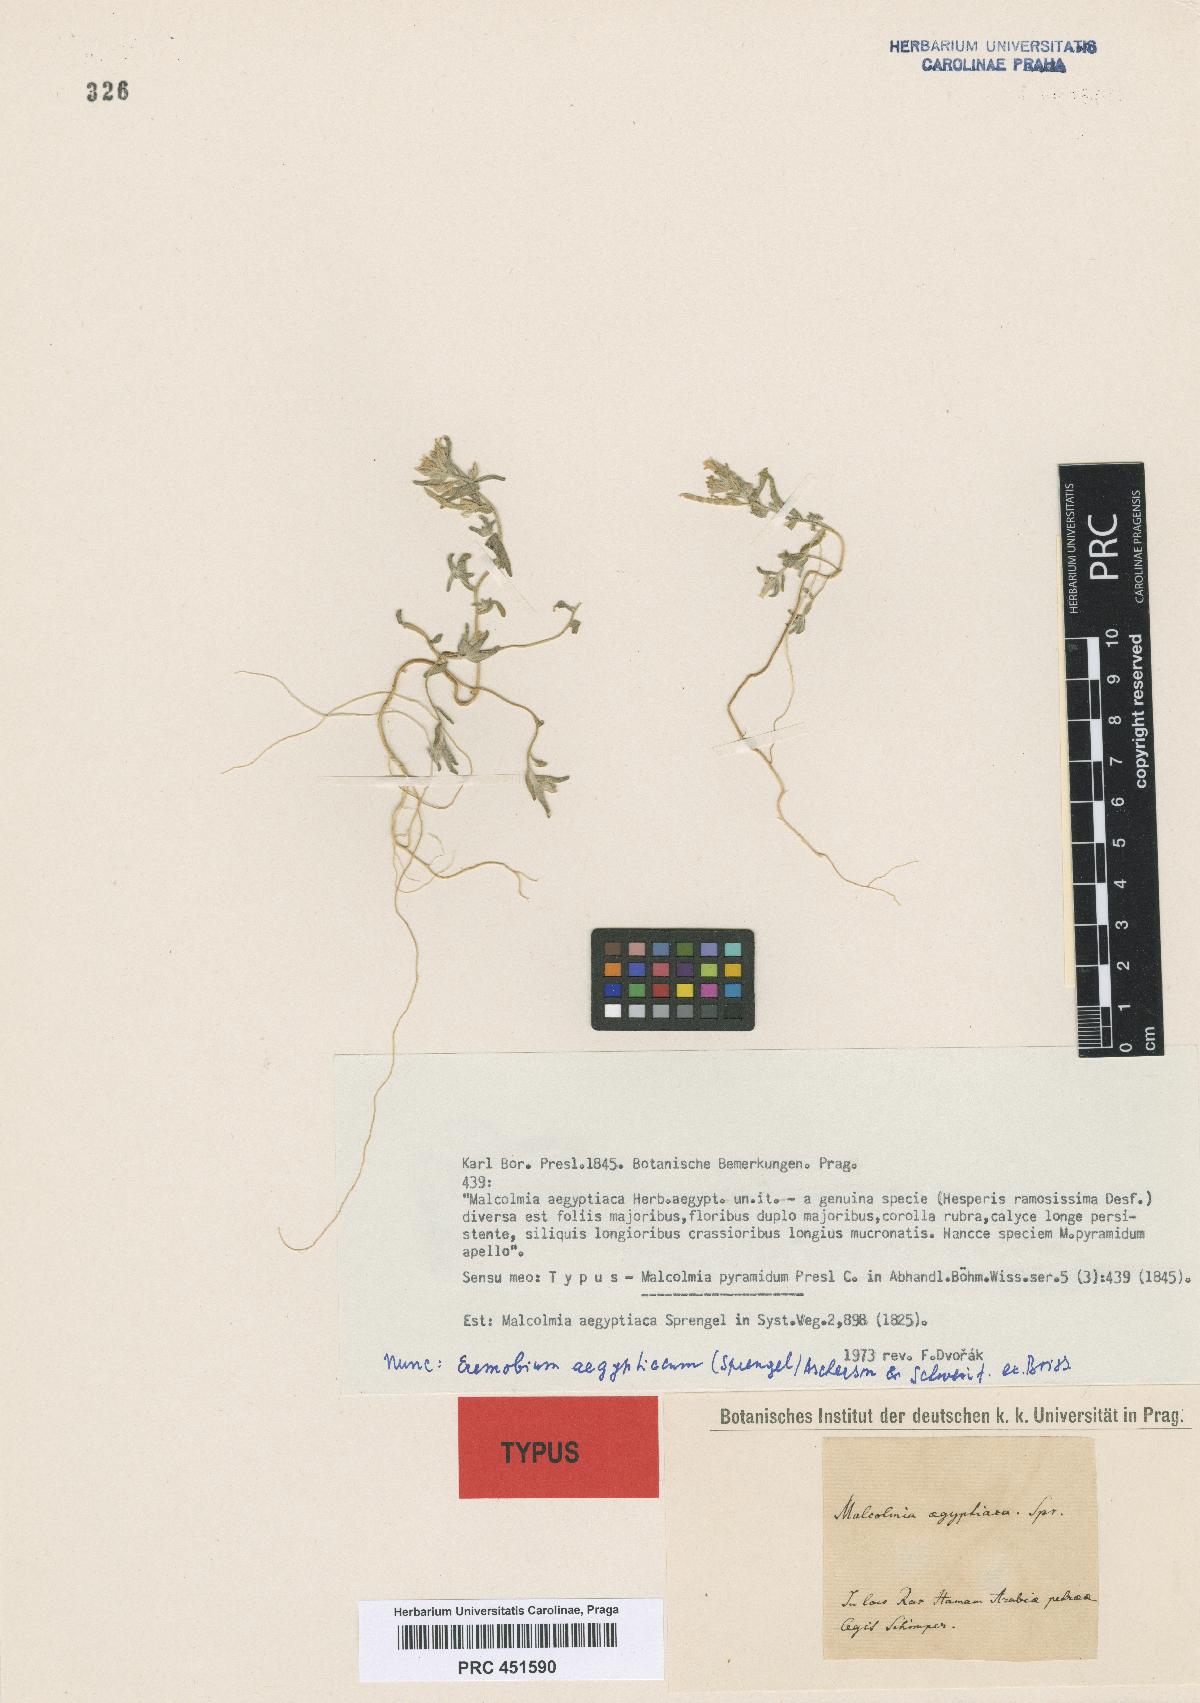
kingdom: Plantae
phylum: Tracheophyta
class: Magnoliopsida
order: Brassicales
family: Brassicaceae
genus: Eremobium
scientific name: Eremobium aegyptiacum
